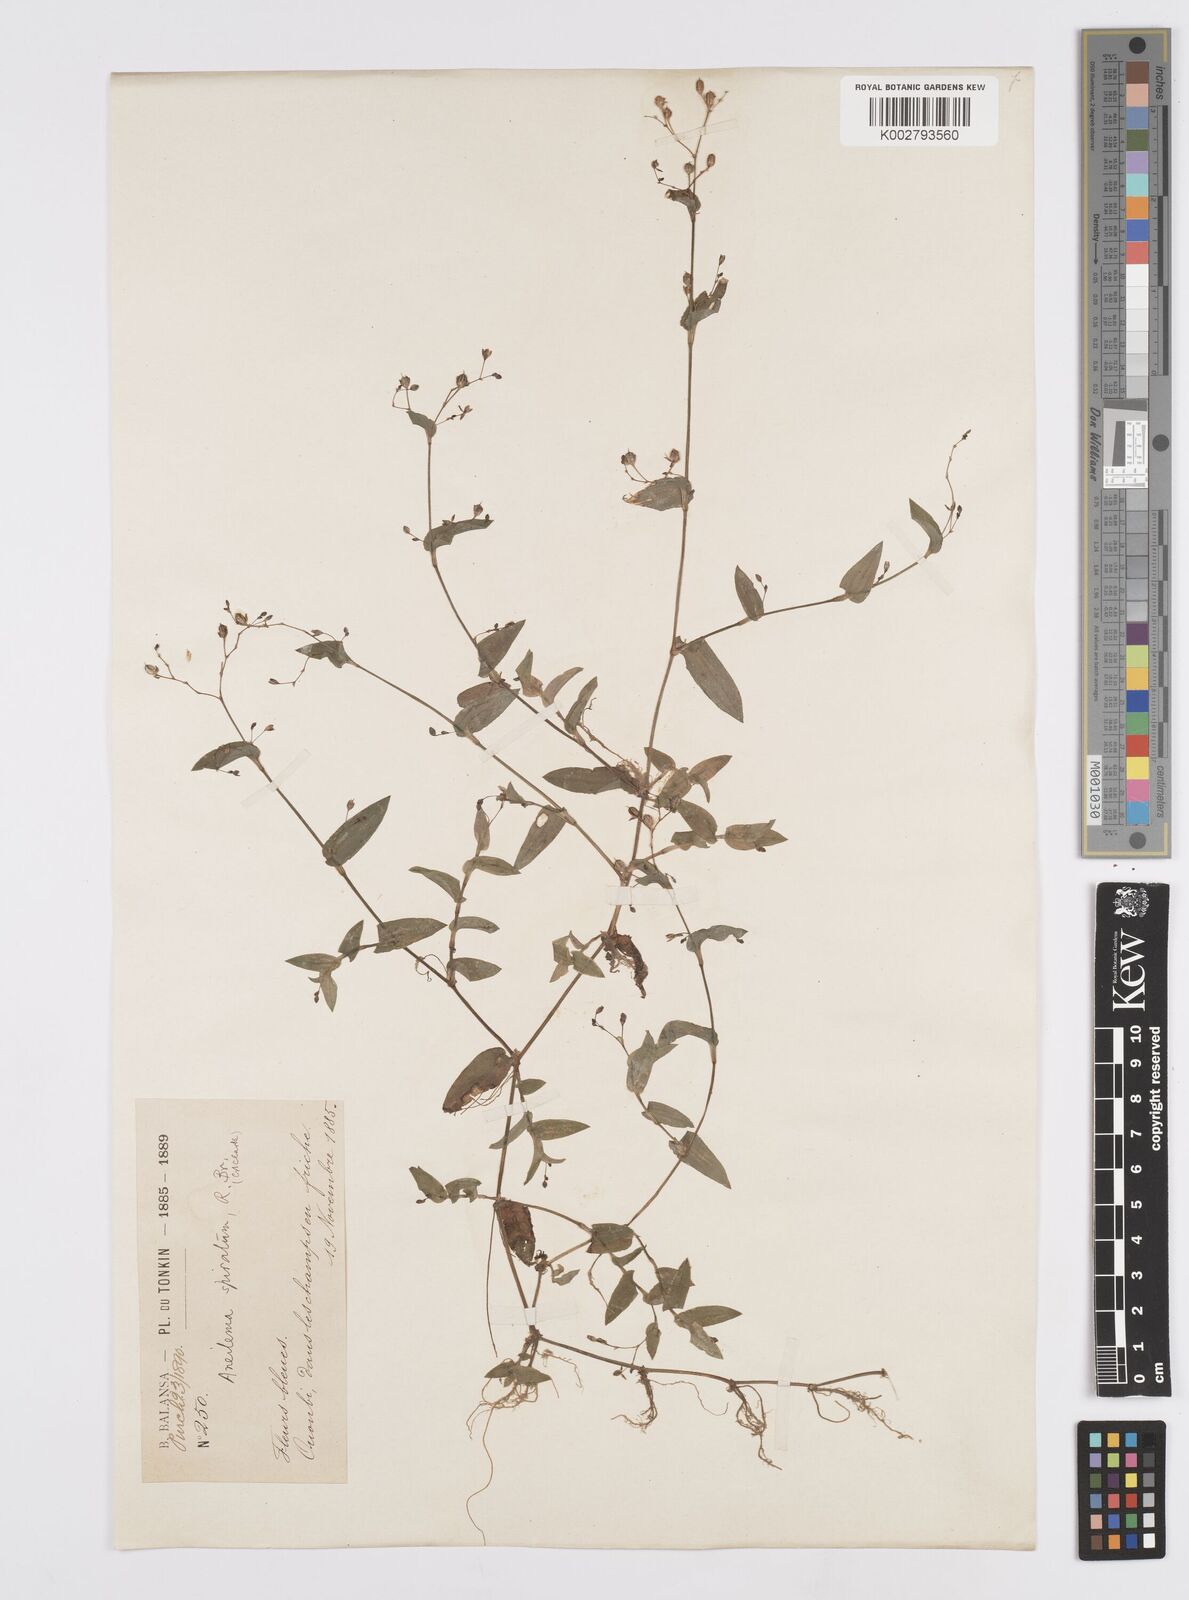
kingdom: Plantae
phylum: Tracheophyta
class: Liliopsida
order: Commelinales
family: Commelinaceae
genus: Murdannia
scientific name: Murdannia spirata
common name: Asiatic dewflower
